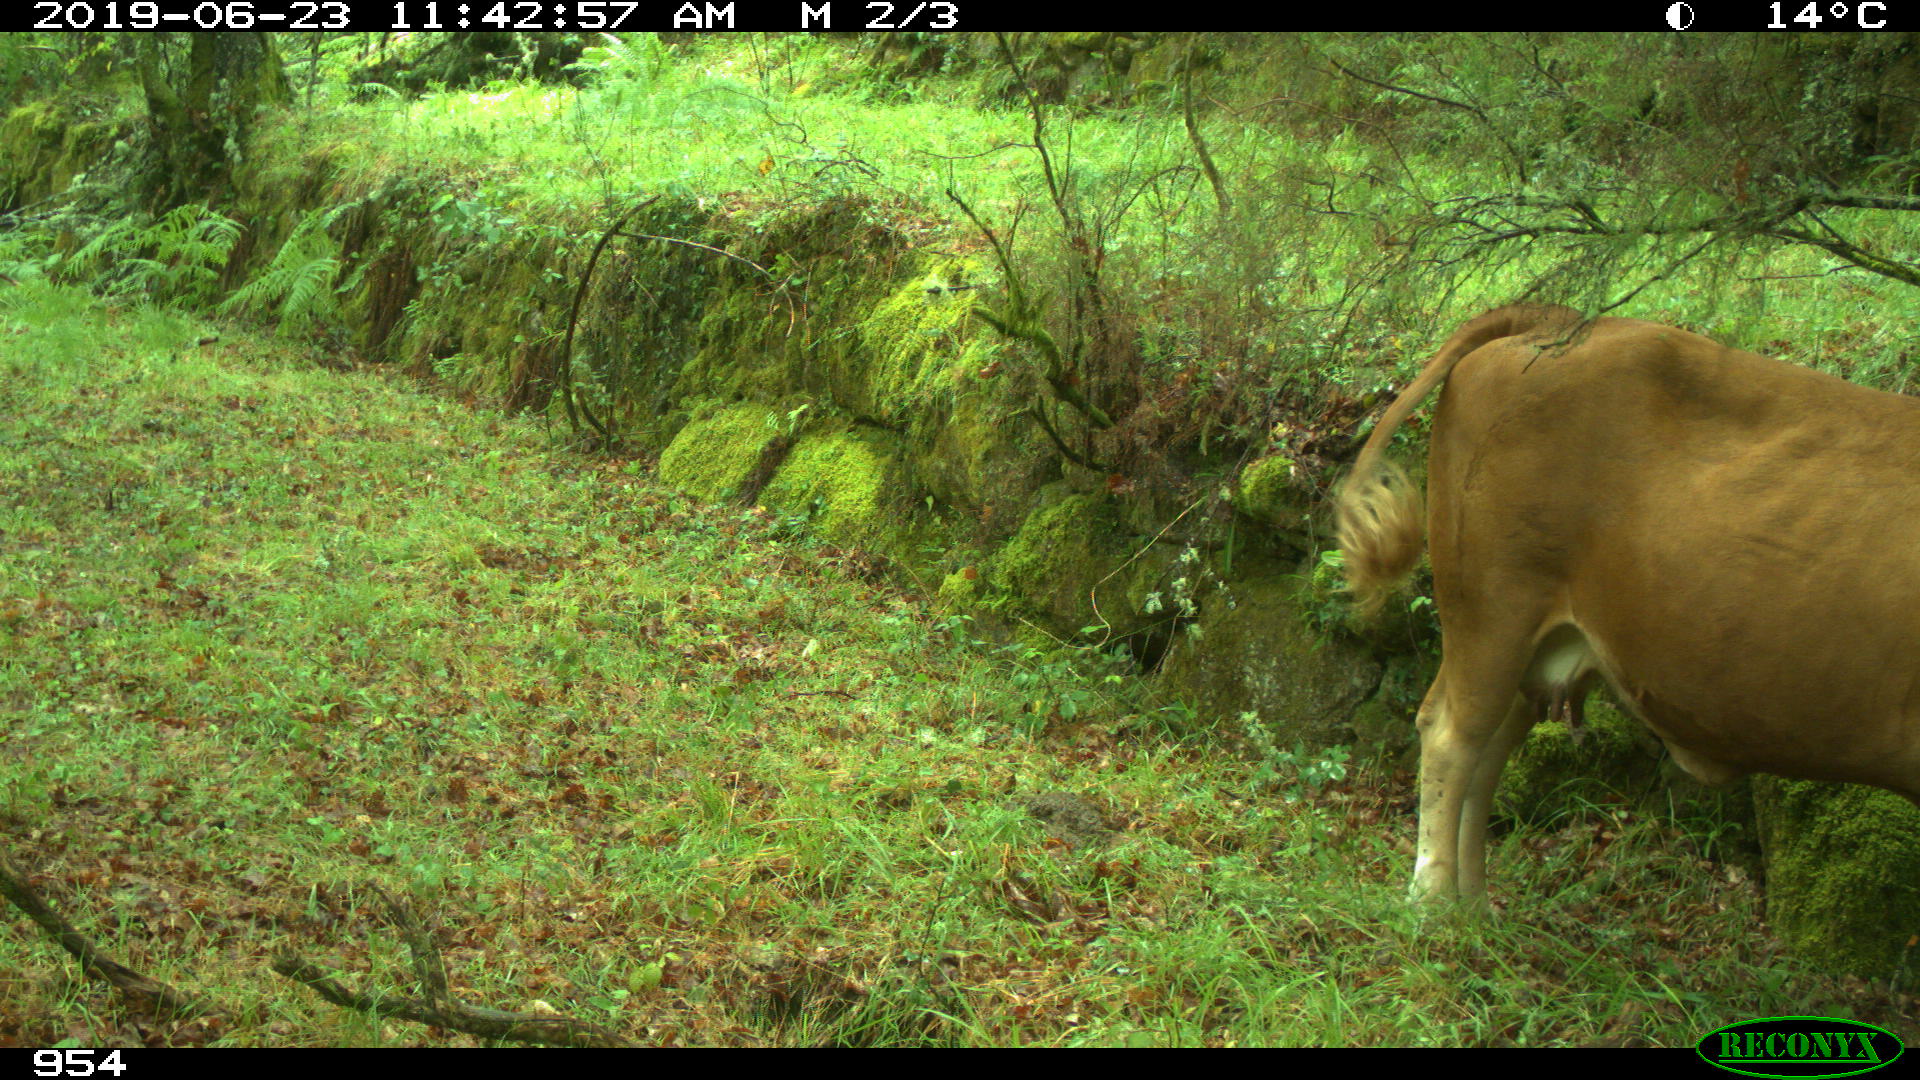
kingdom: Animalia
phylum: Chordata
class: Mammalia
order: Artiodactyla
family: Bovidae
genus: Bos
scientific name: Bos taurus
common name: Domesticated cattle
